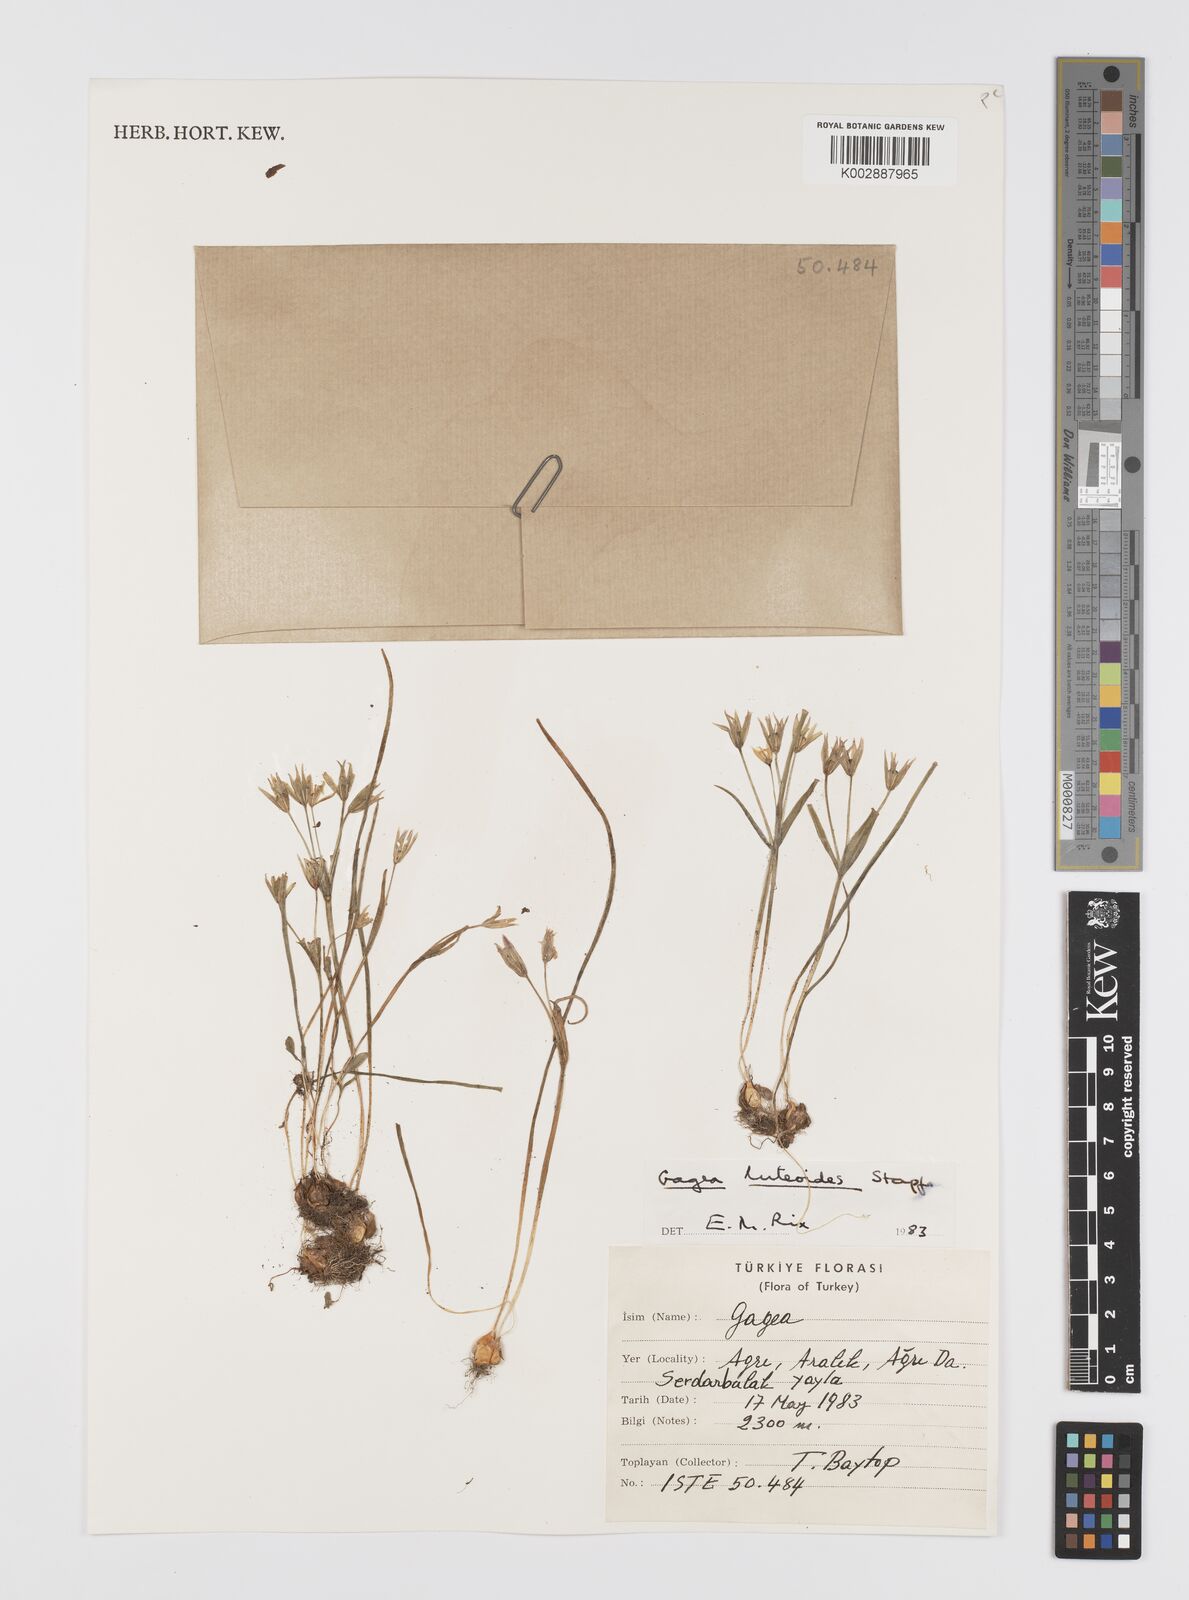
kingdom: Plantae
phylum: Tracheophyta
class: Liliopsida
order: Liliales
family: Liliaceae
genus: Gagea
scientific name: Gagea luteoides
